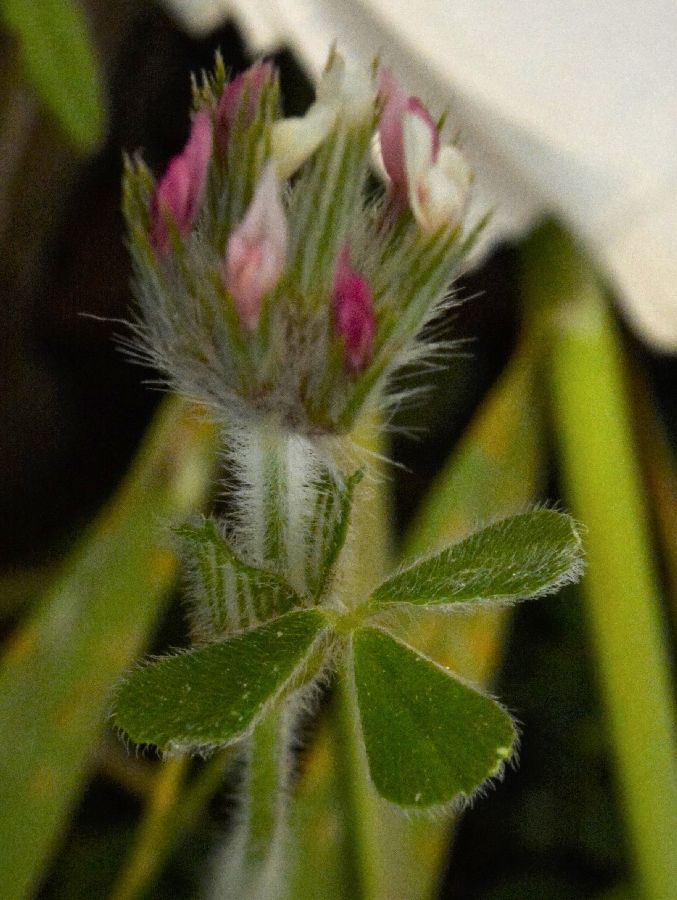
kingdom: Plantae
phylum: Tracheophyta
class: Magnoliopsida
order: Fabales
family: Fabaceae
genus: Trifolium
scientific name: Trifolium stellatum
